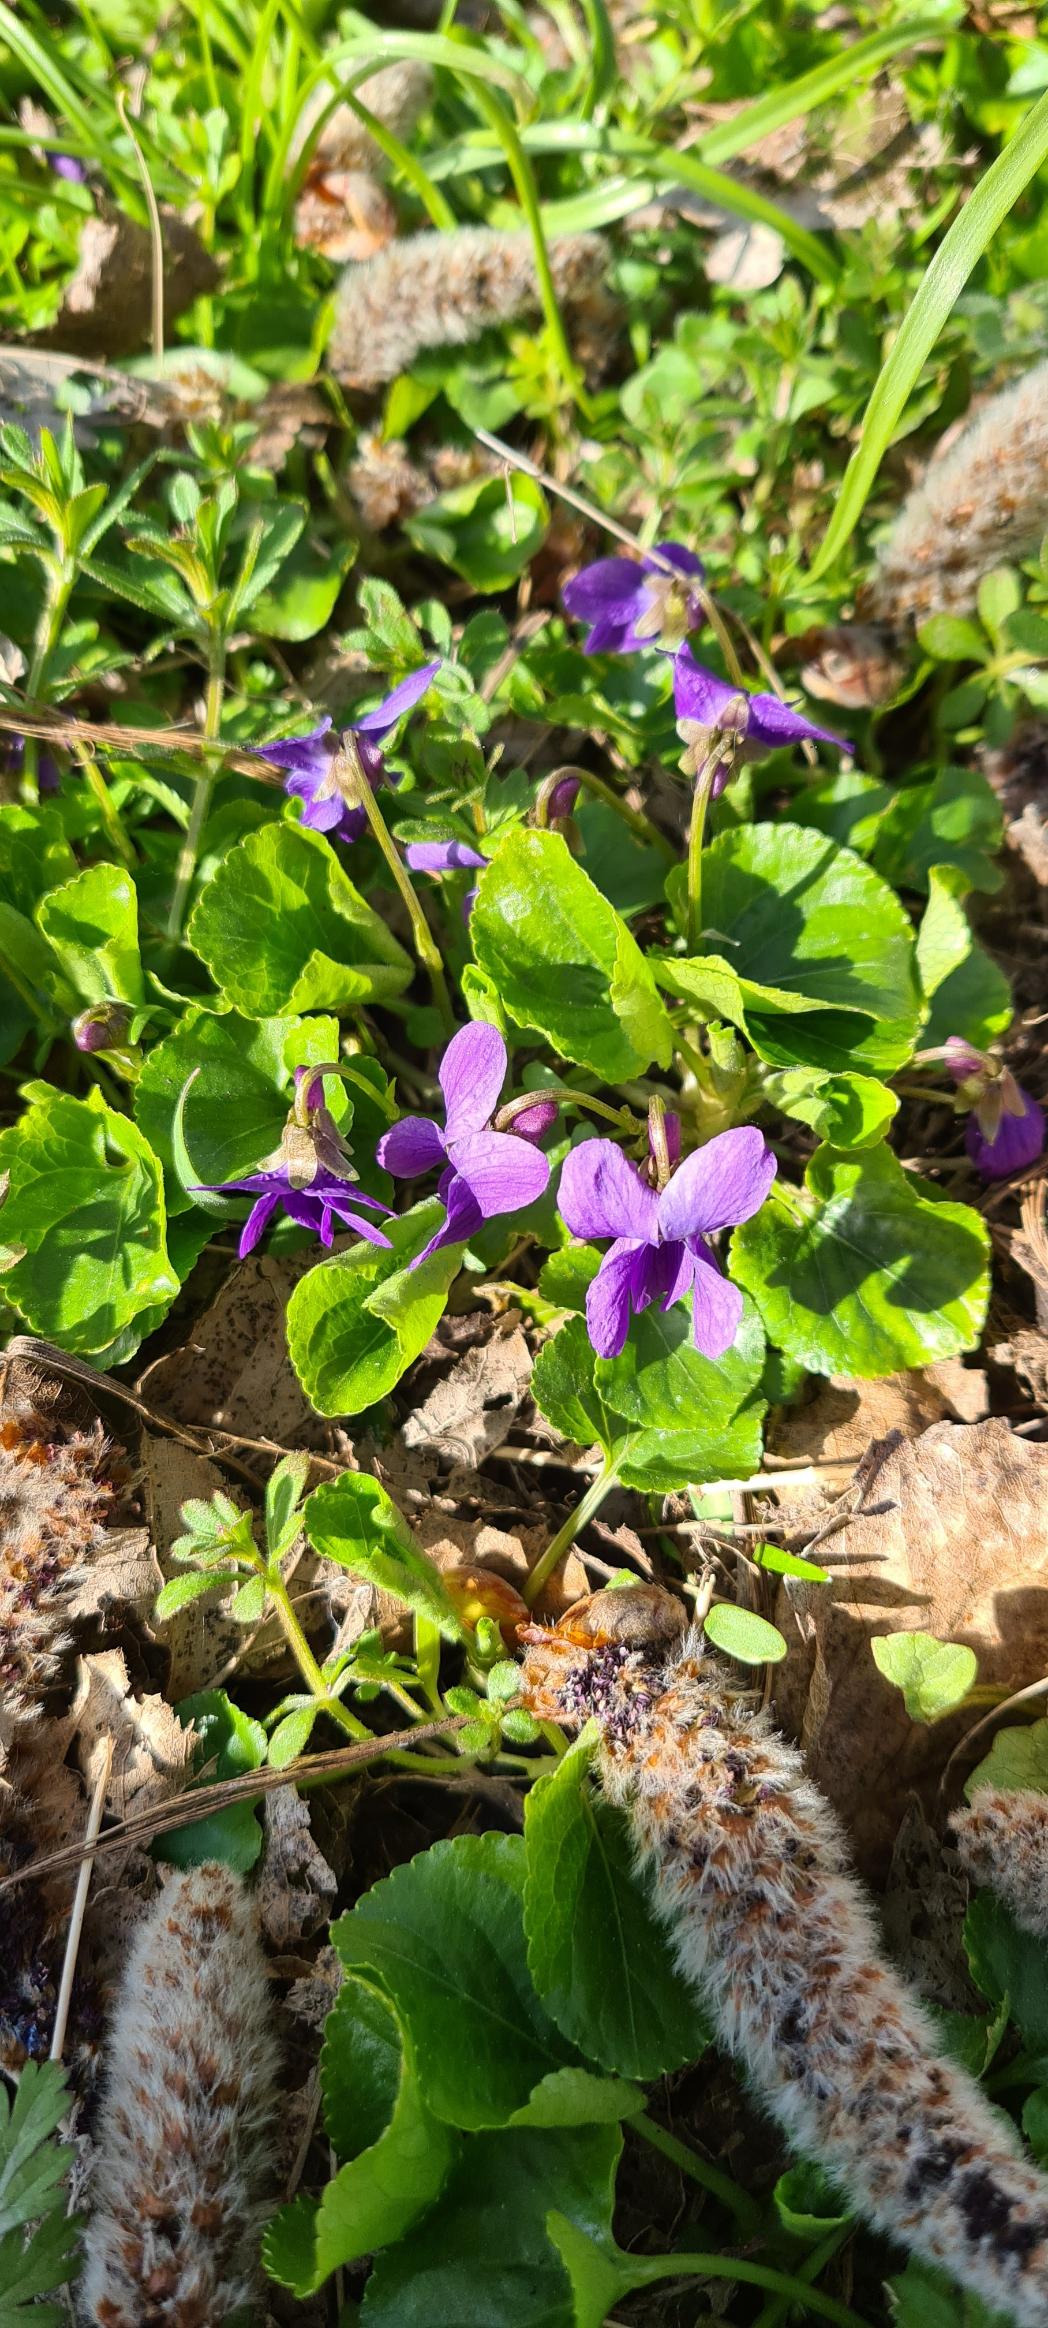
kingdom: Plantae
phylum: Tracheophyta
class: Magnoliopsida
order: Malpighiales
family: Violaceae
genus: Viola
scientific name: Viola odorata
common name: Marts-viol
